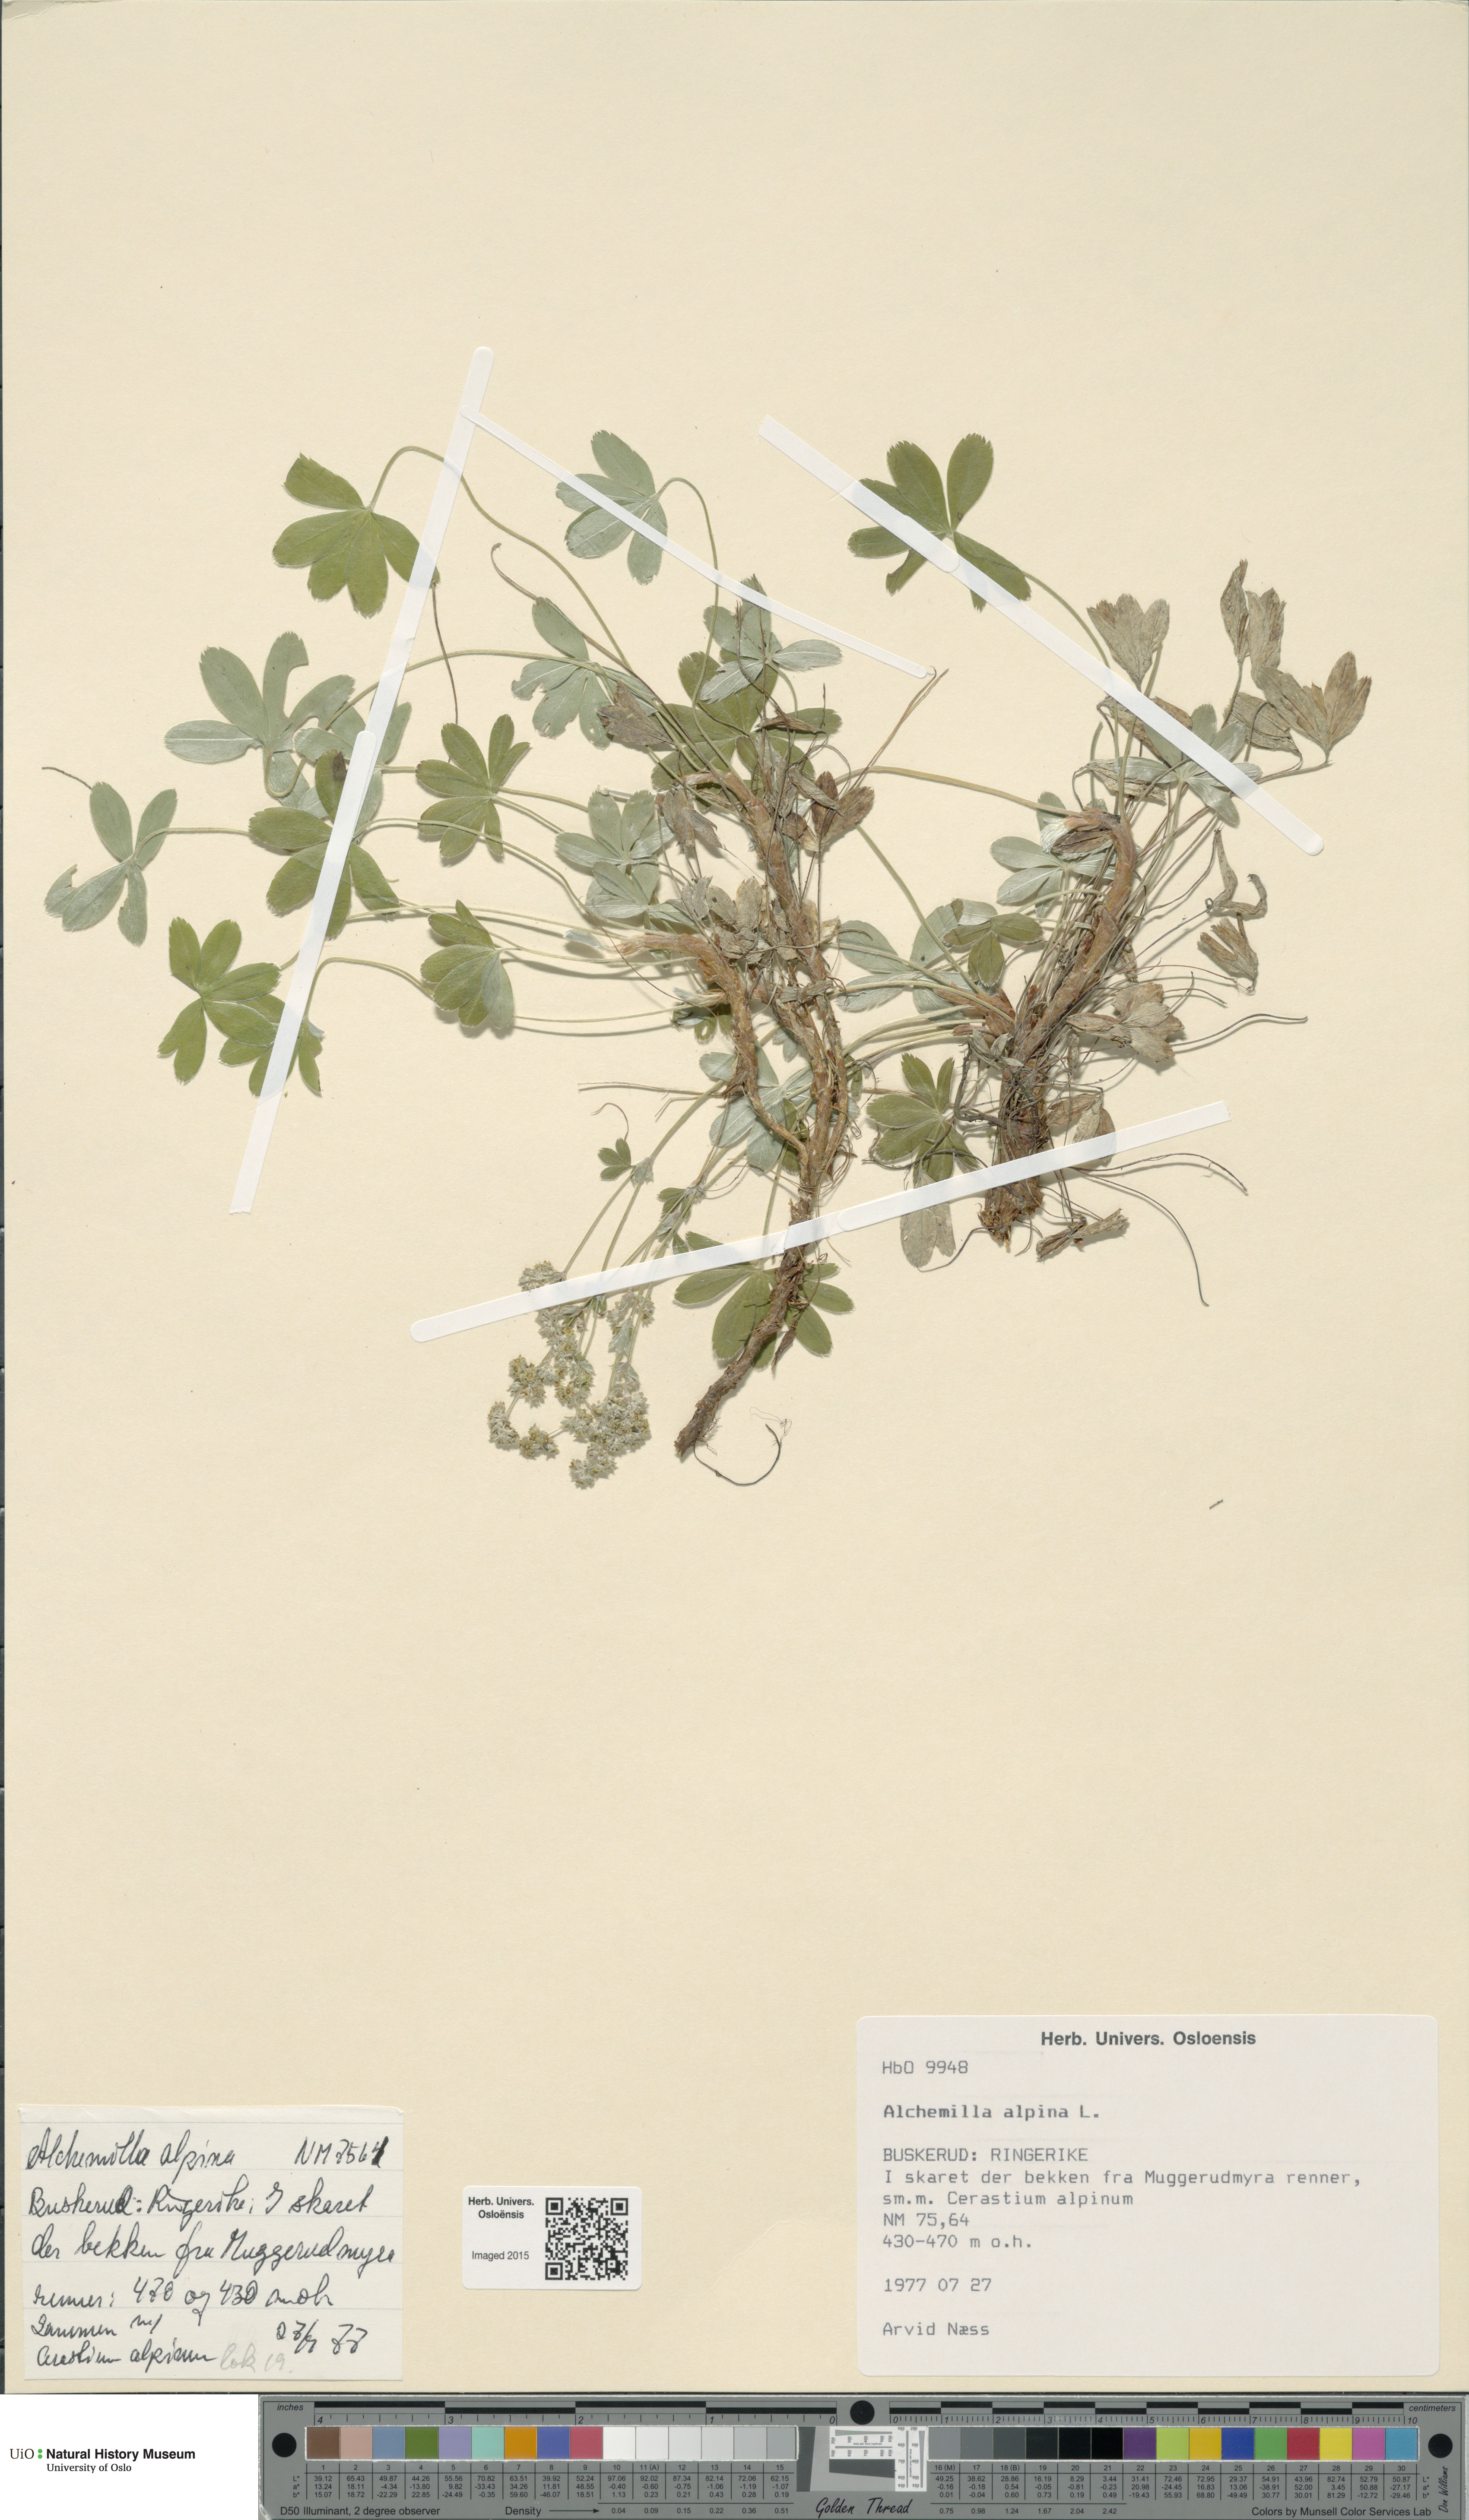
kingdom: Plantae
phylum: Tracheophyta
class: Magnoliopsida
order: Rosales
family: Rosaceae
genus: Alchemilla
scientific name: Alchemilla alpina
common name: Alpine lady's-mantle
